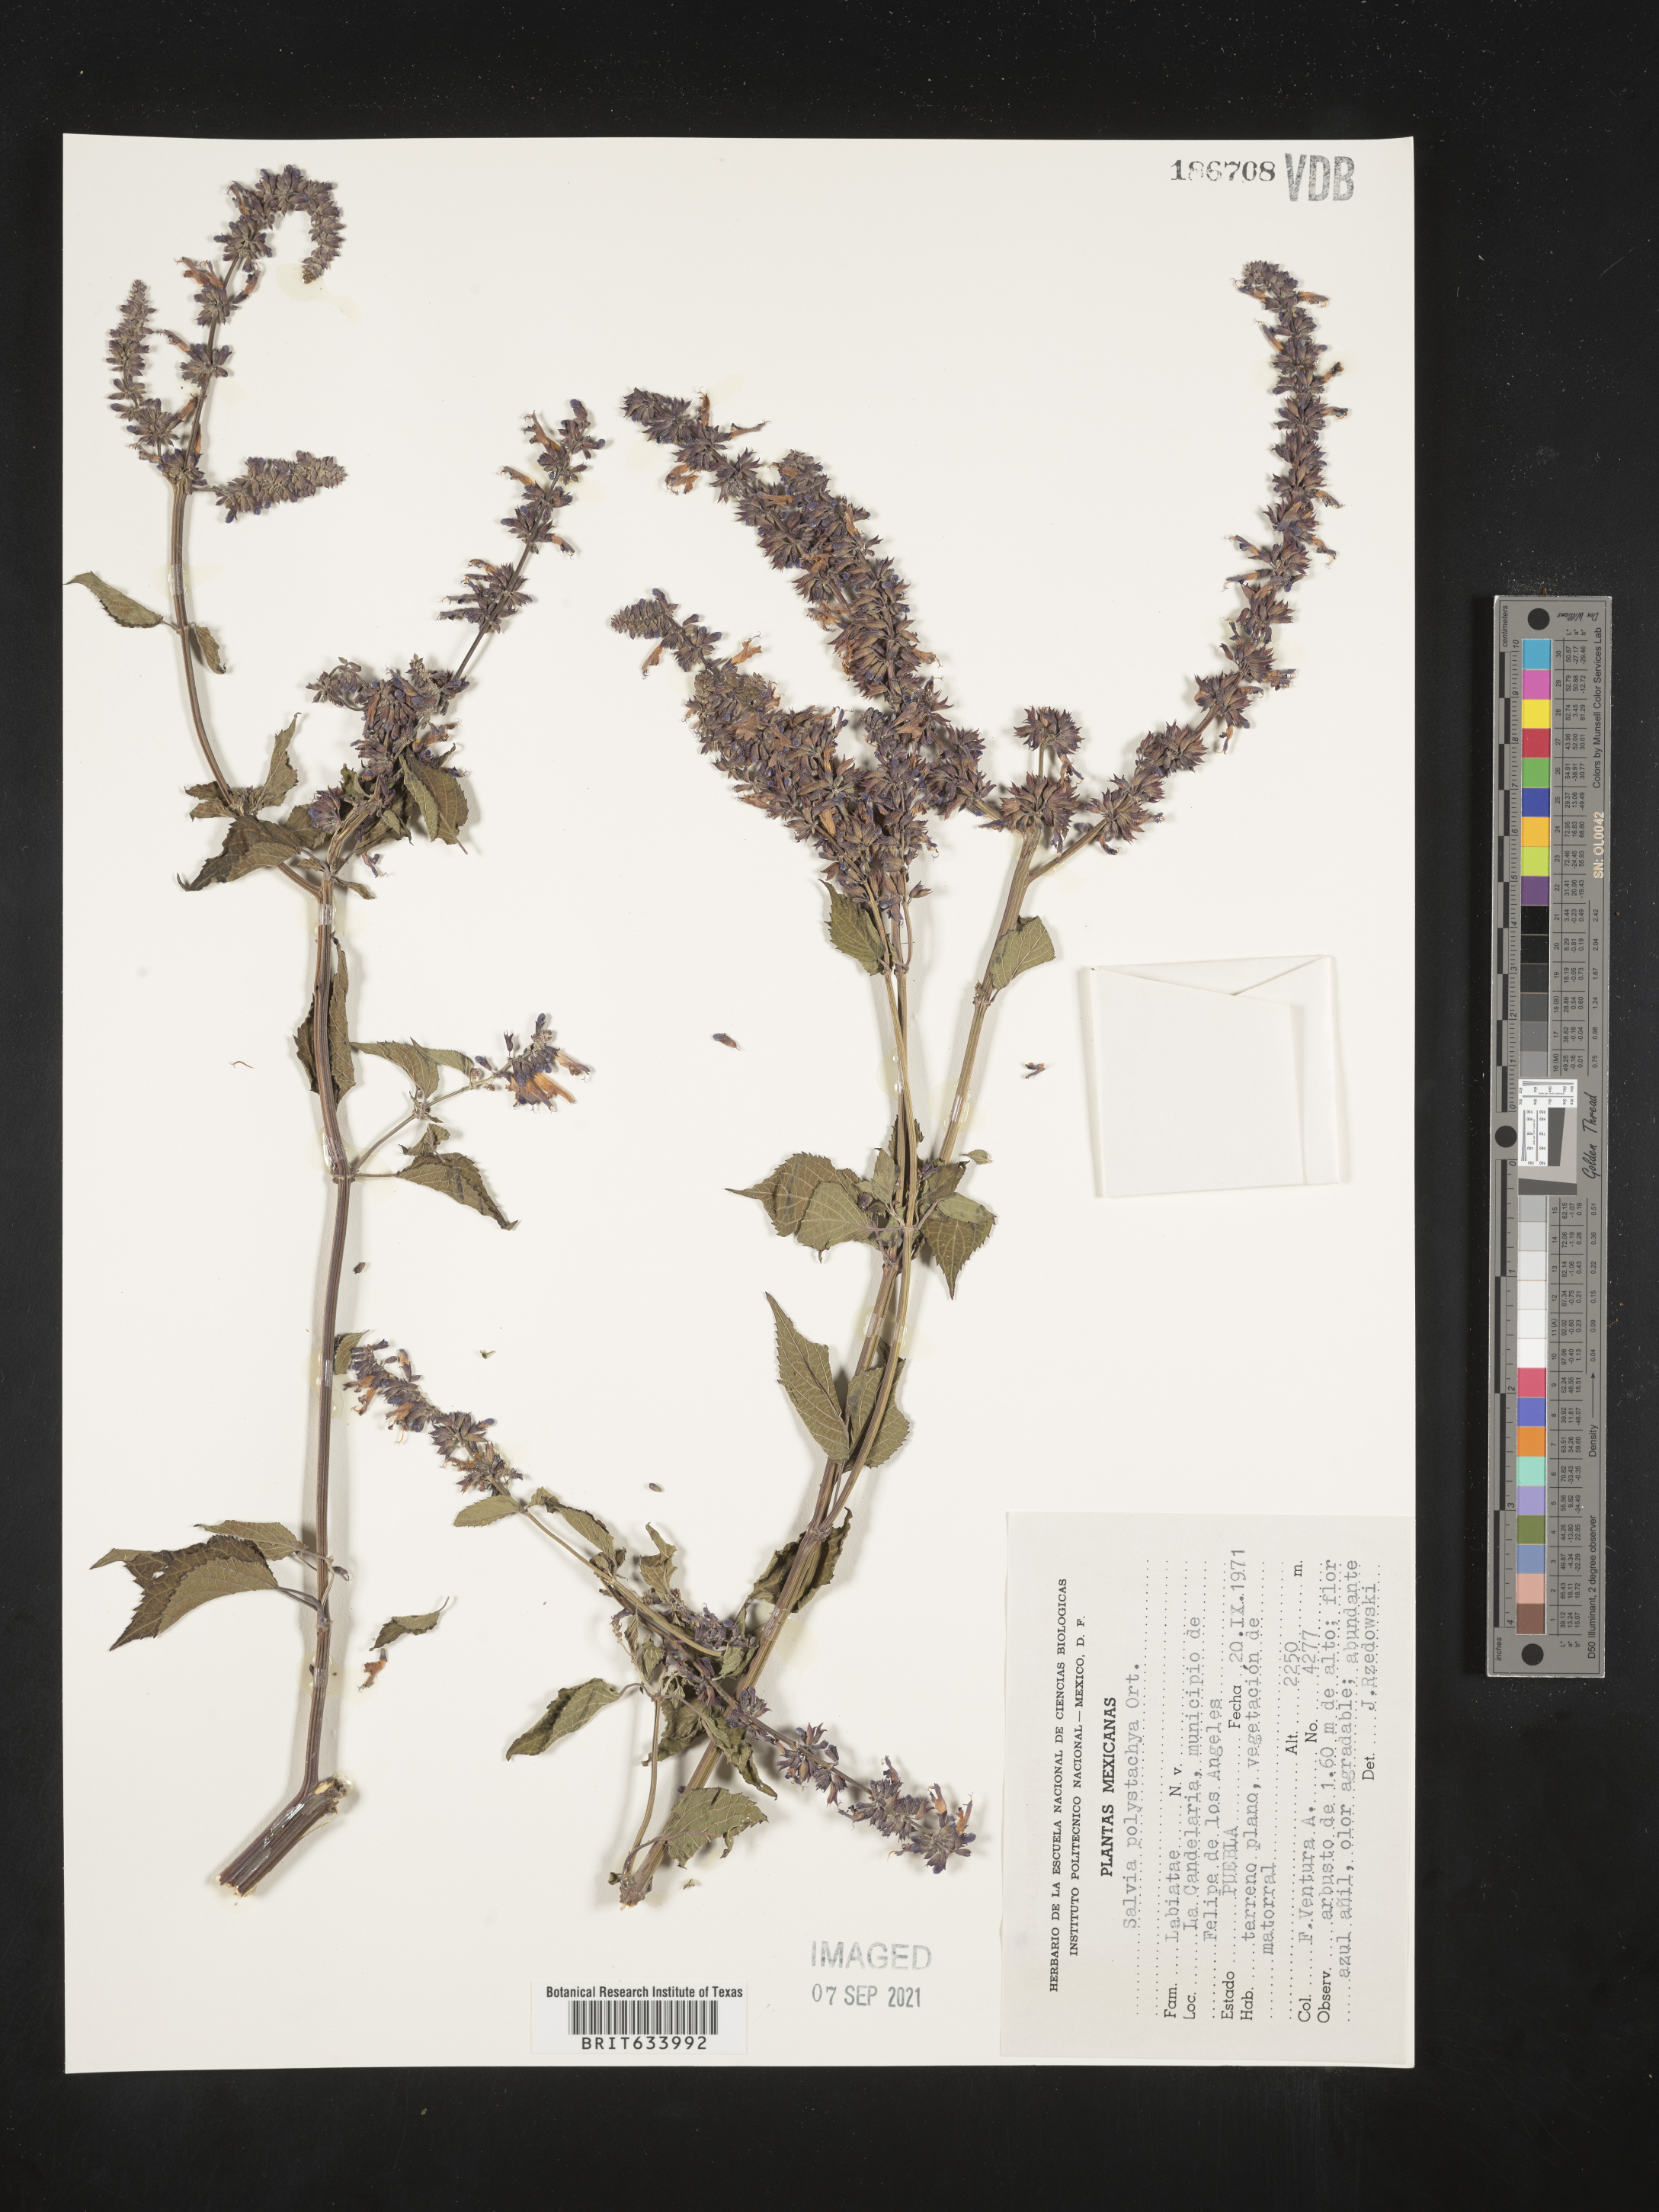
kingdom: Plantae
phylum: Tracheophyta
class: Magnoliopsida
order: Lamiales
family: Lamiaceae
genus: Salvia
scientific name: Salvia
